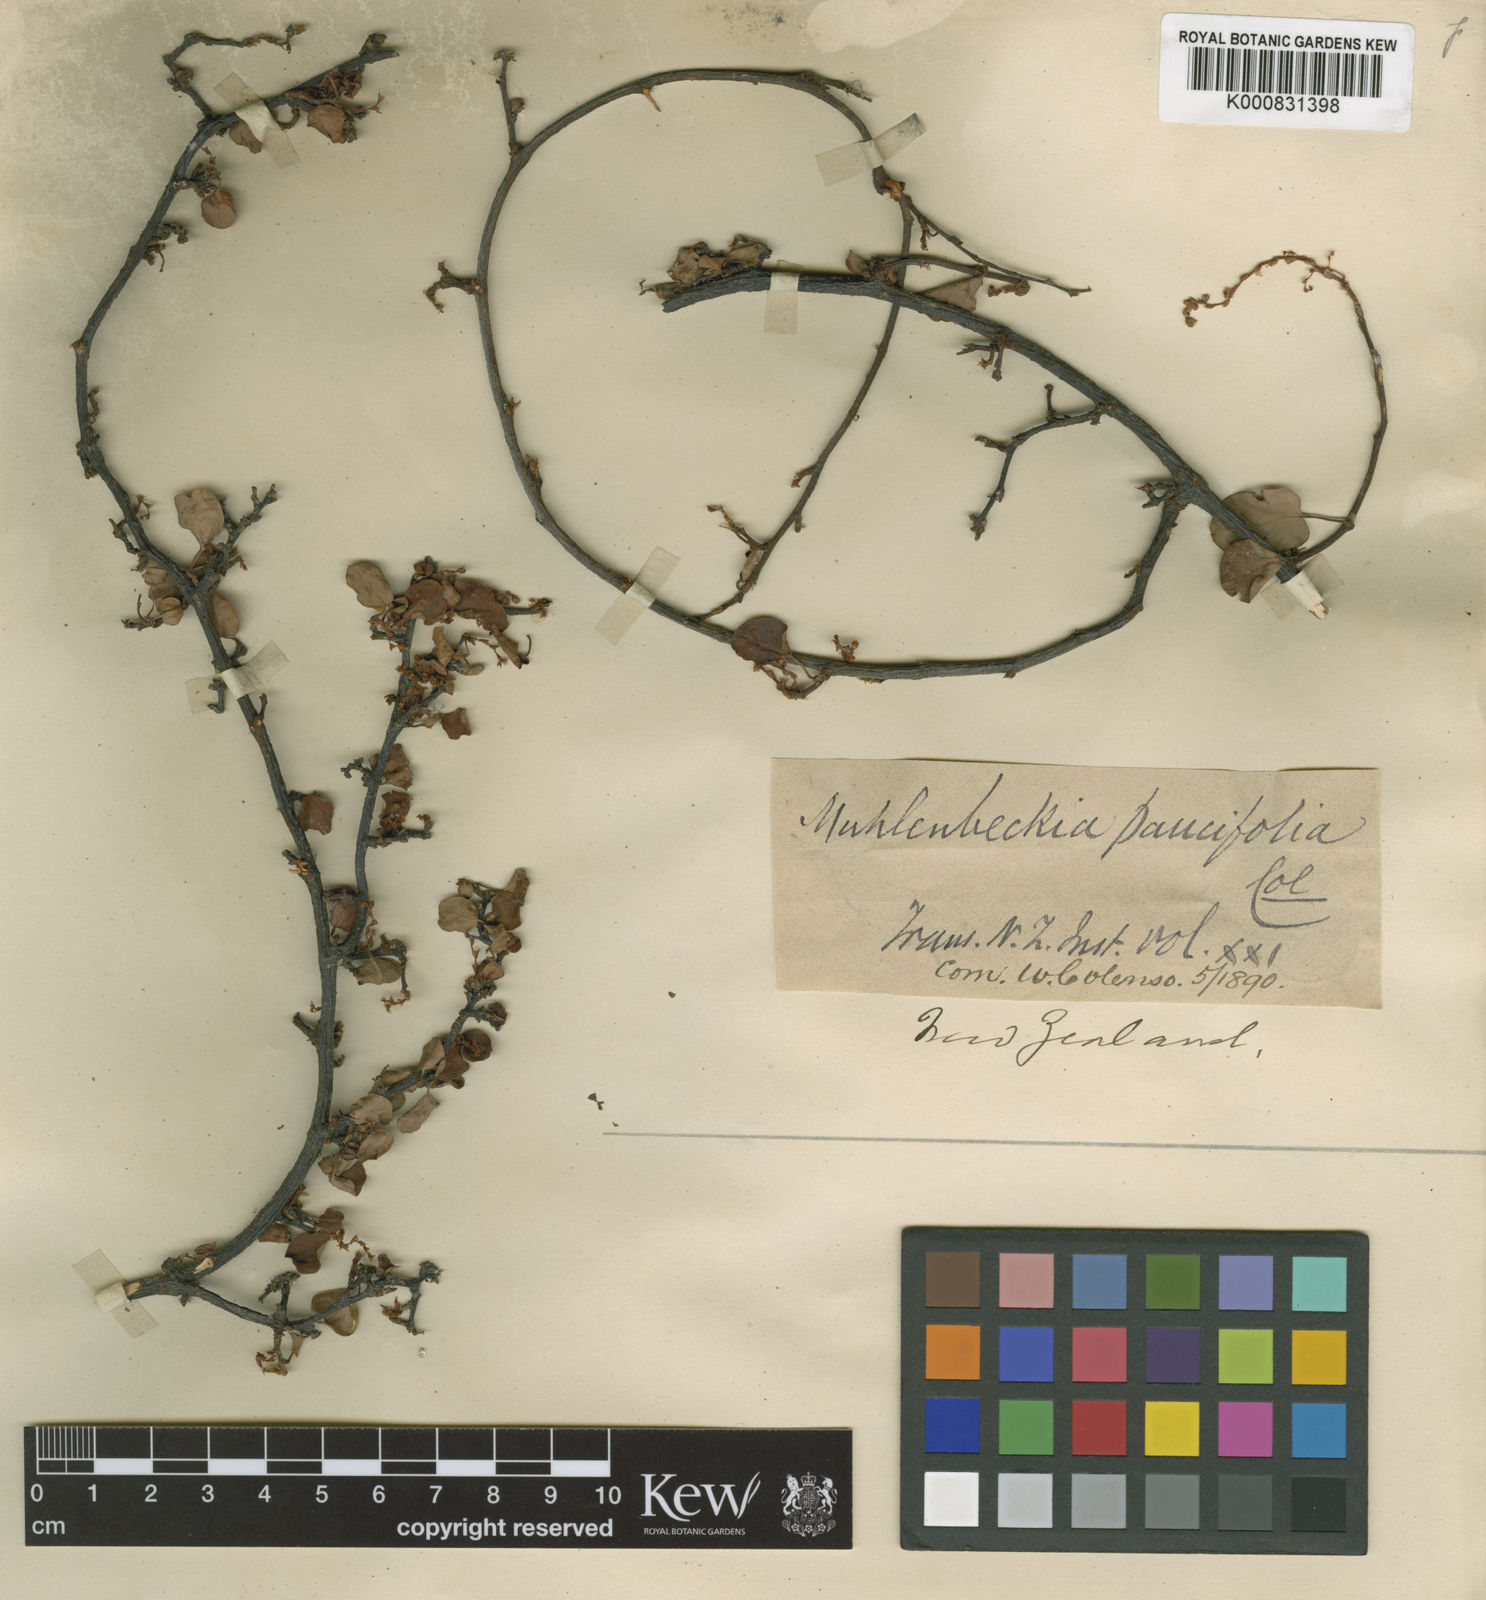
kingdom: Plantae
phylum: Tracheophyta
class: Magnoliopsida
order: Caryophyllales
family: Polygonaceae
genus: Muehlenbeckia
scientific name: Muehlenbeckia complexa
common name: Wireplant
